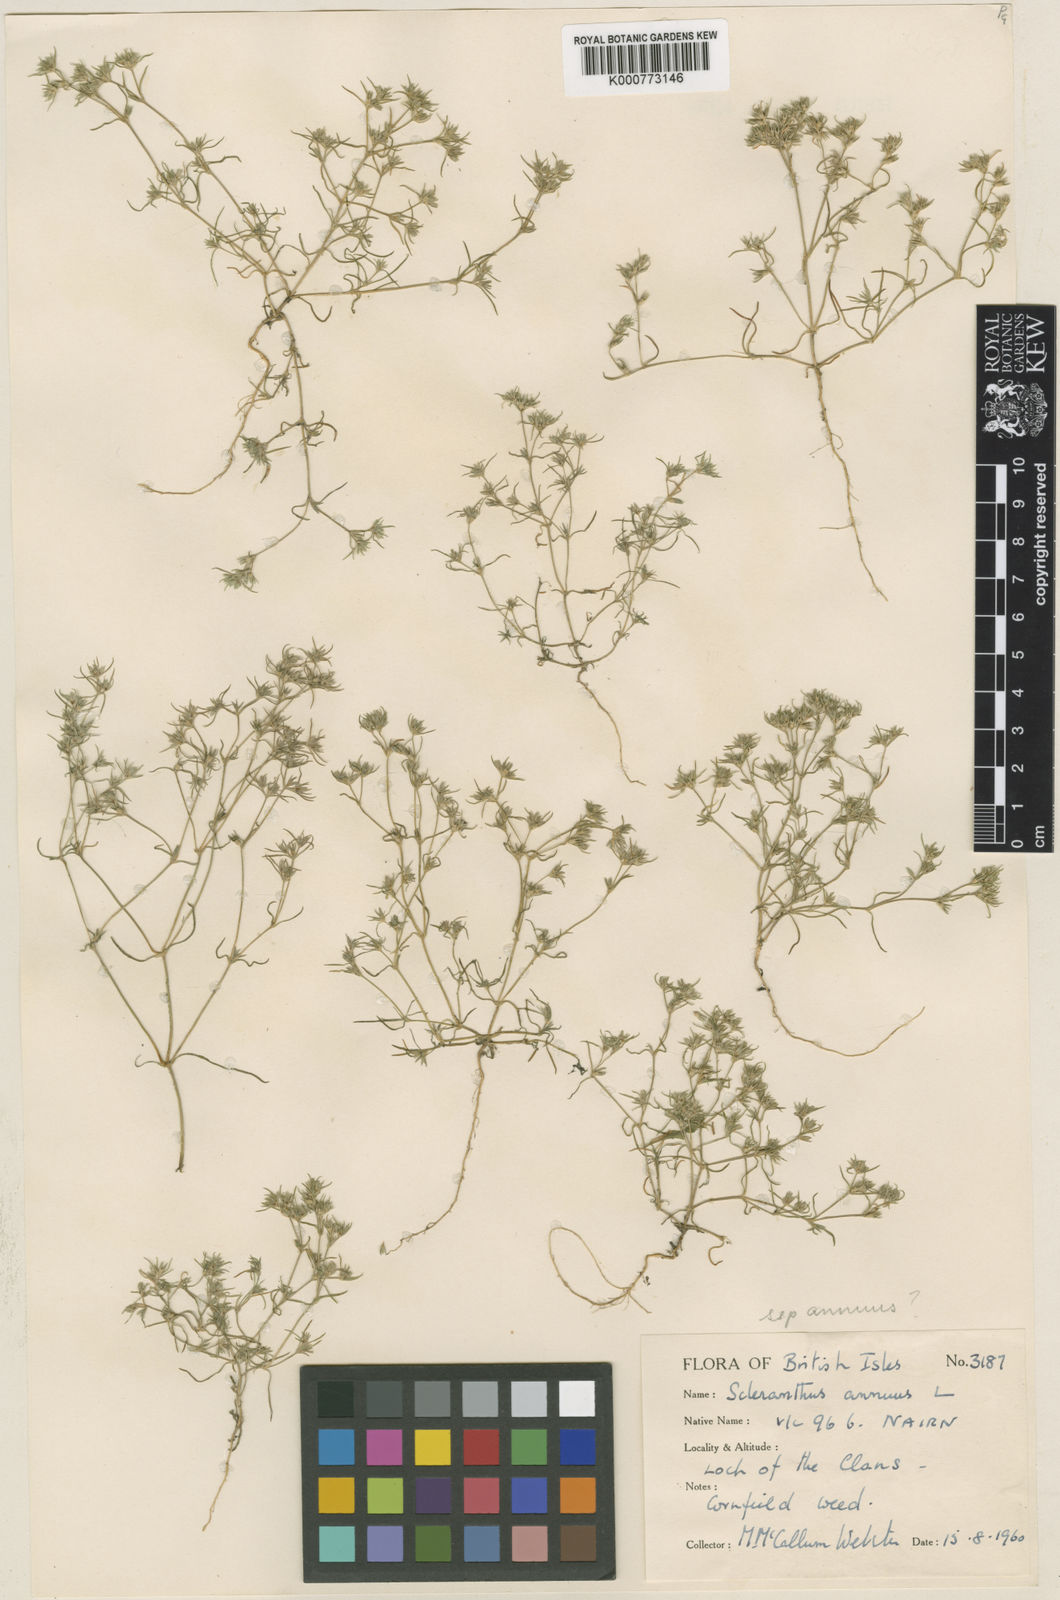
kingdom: Plantae
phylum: Tracheophyta
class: Magnoliopsida
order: Caryophyllales
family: Caryophyllaceae
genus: Scleranthus
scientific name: Scleranthus annuus
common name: Annual knawel
